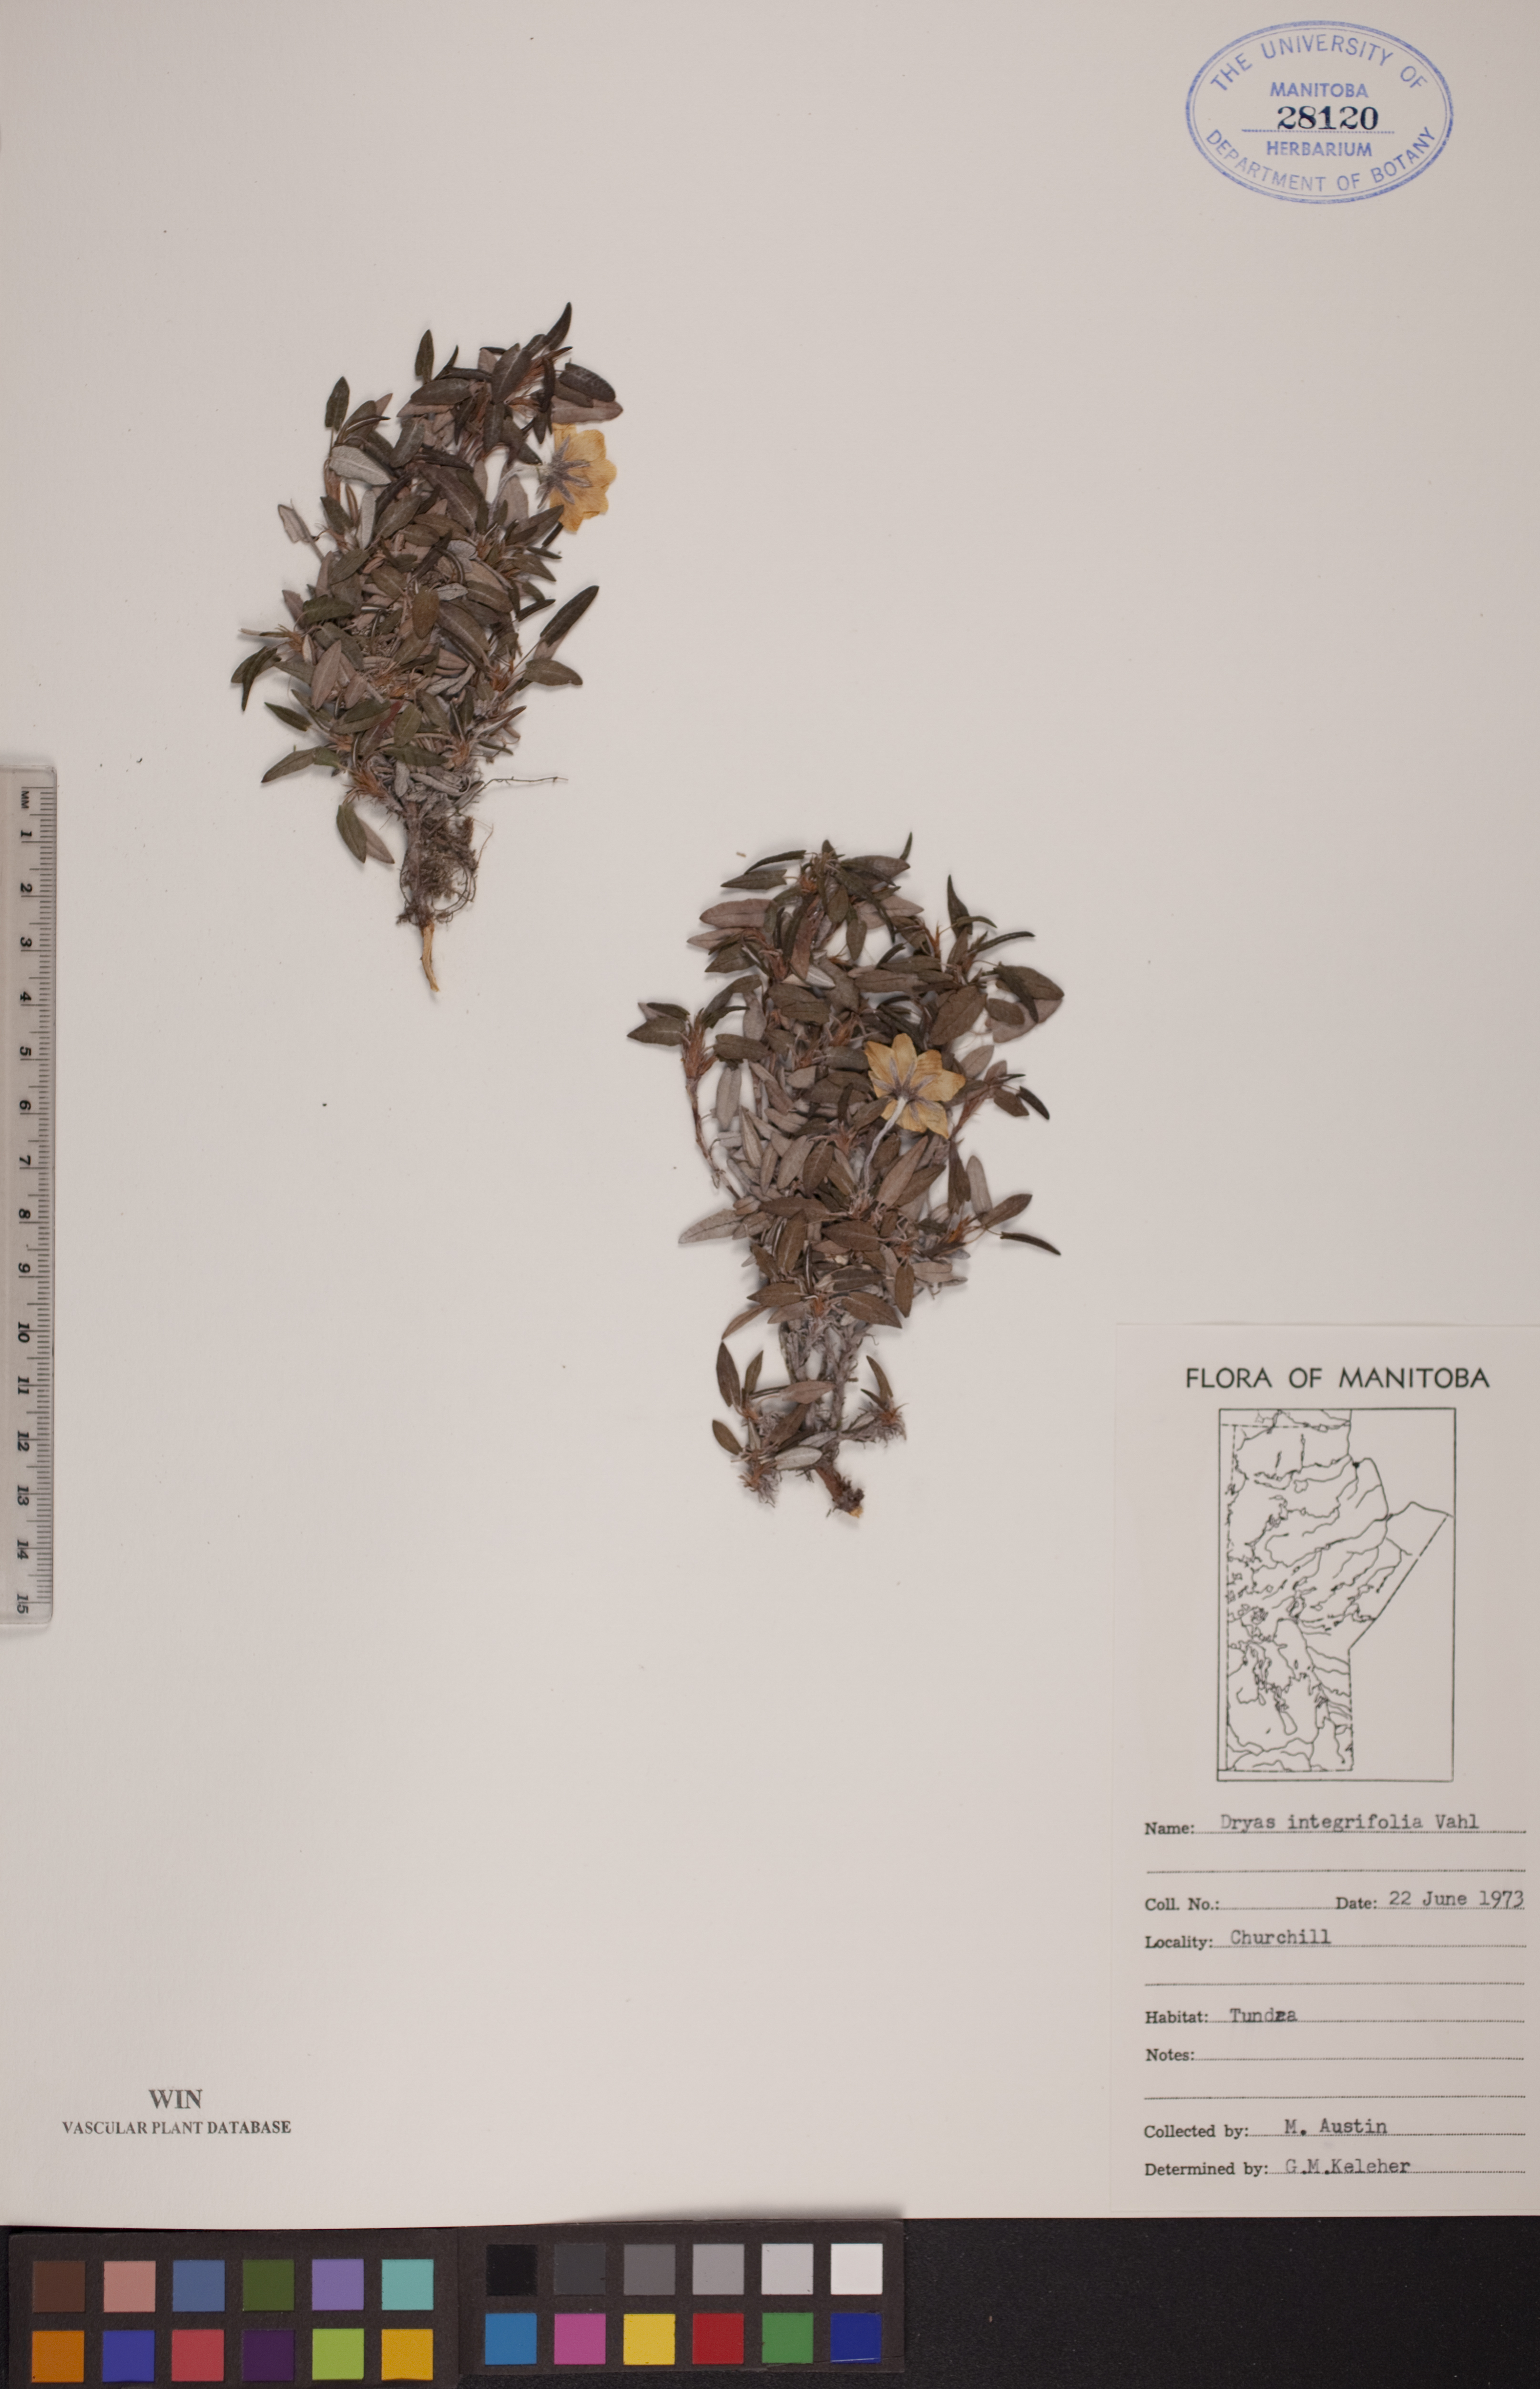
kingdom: Plantae
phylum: Tracheophyta
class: Magnoliopsida
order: Rosales
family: Rosaceae
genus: Dryas
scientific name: Dryas integrifolia
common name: Entire-leaved mountain avens
